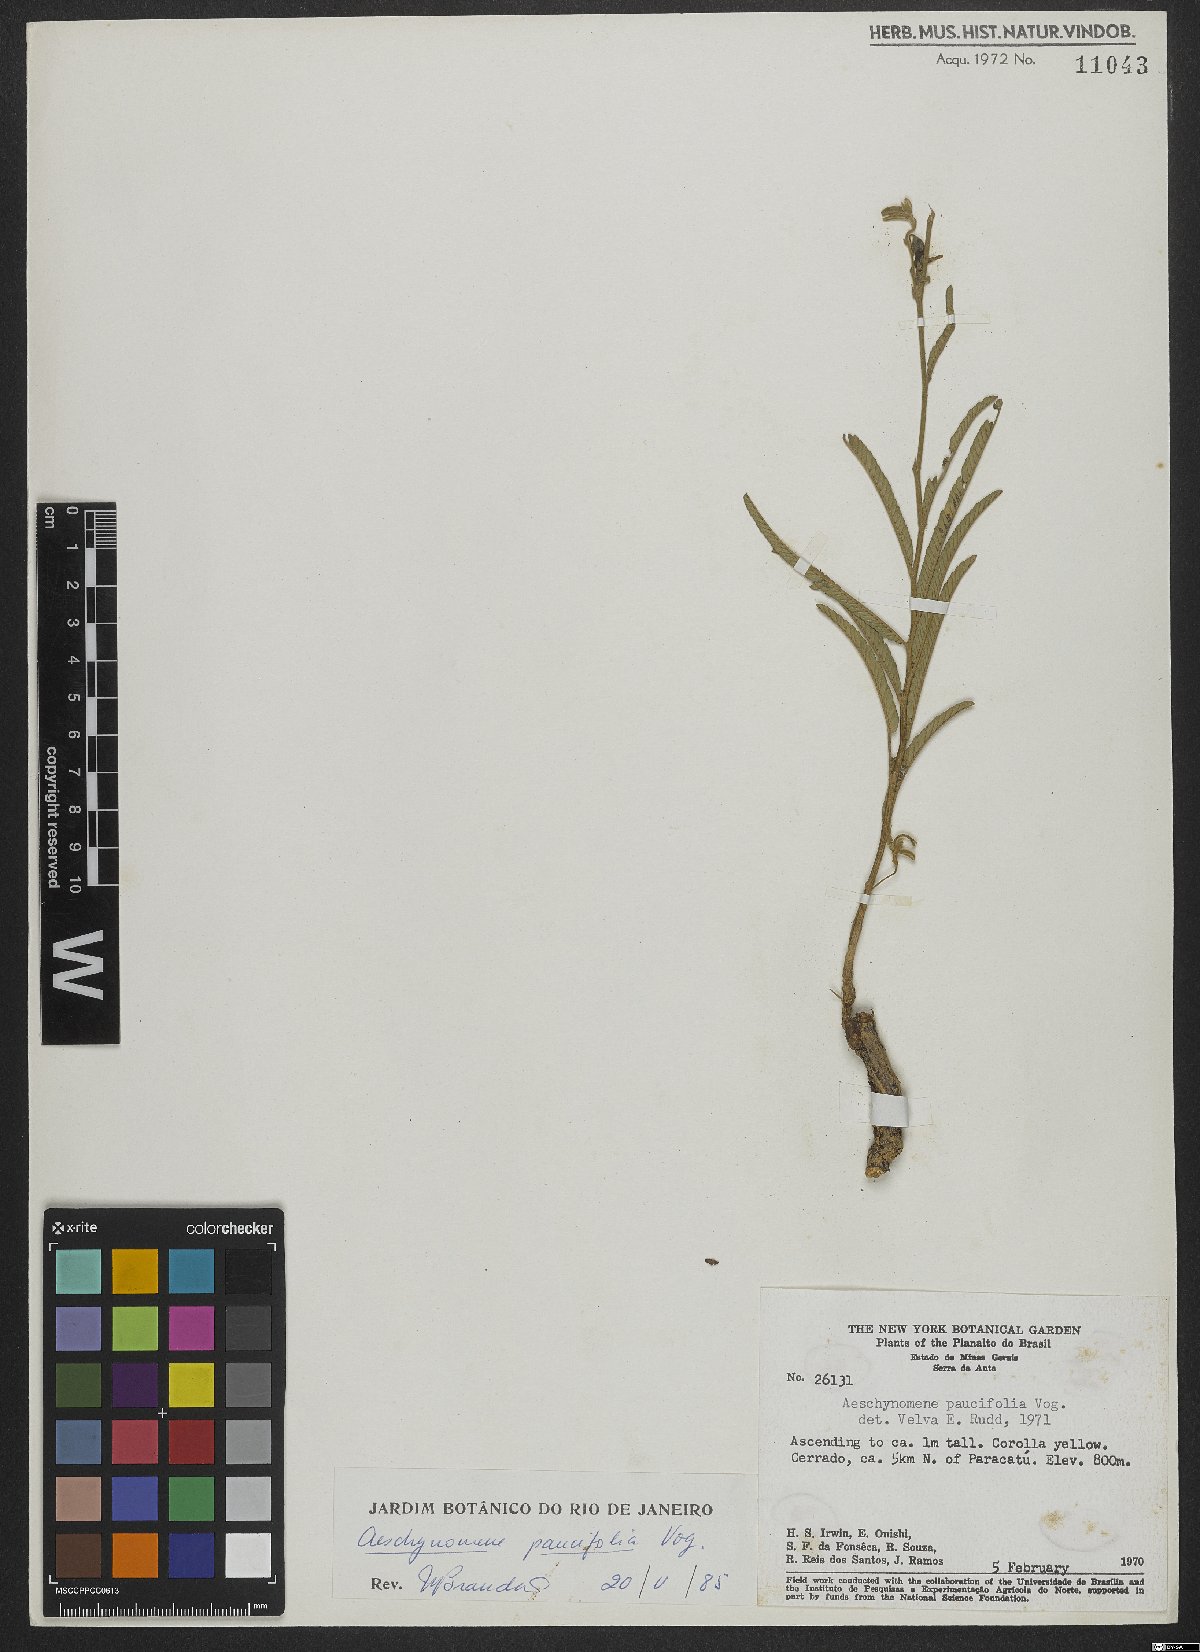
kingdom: Plantae
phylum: Tracheophyta
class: Magnoliopsida
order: Fabales
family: Fabaceae
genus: Ctenodon
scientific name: Ctenodon paucifolius
